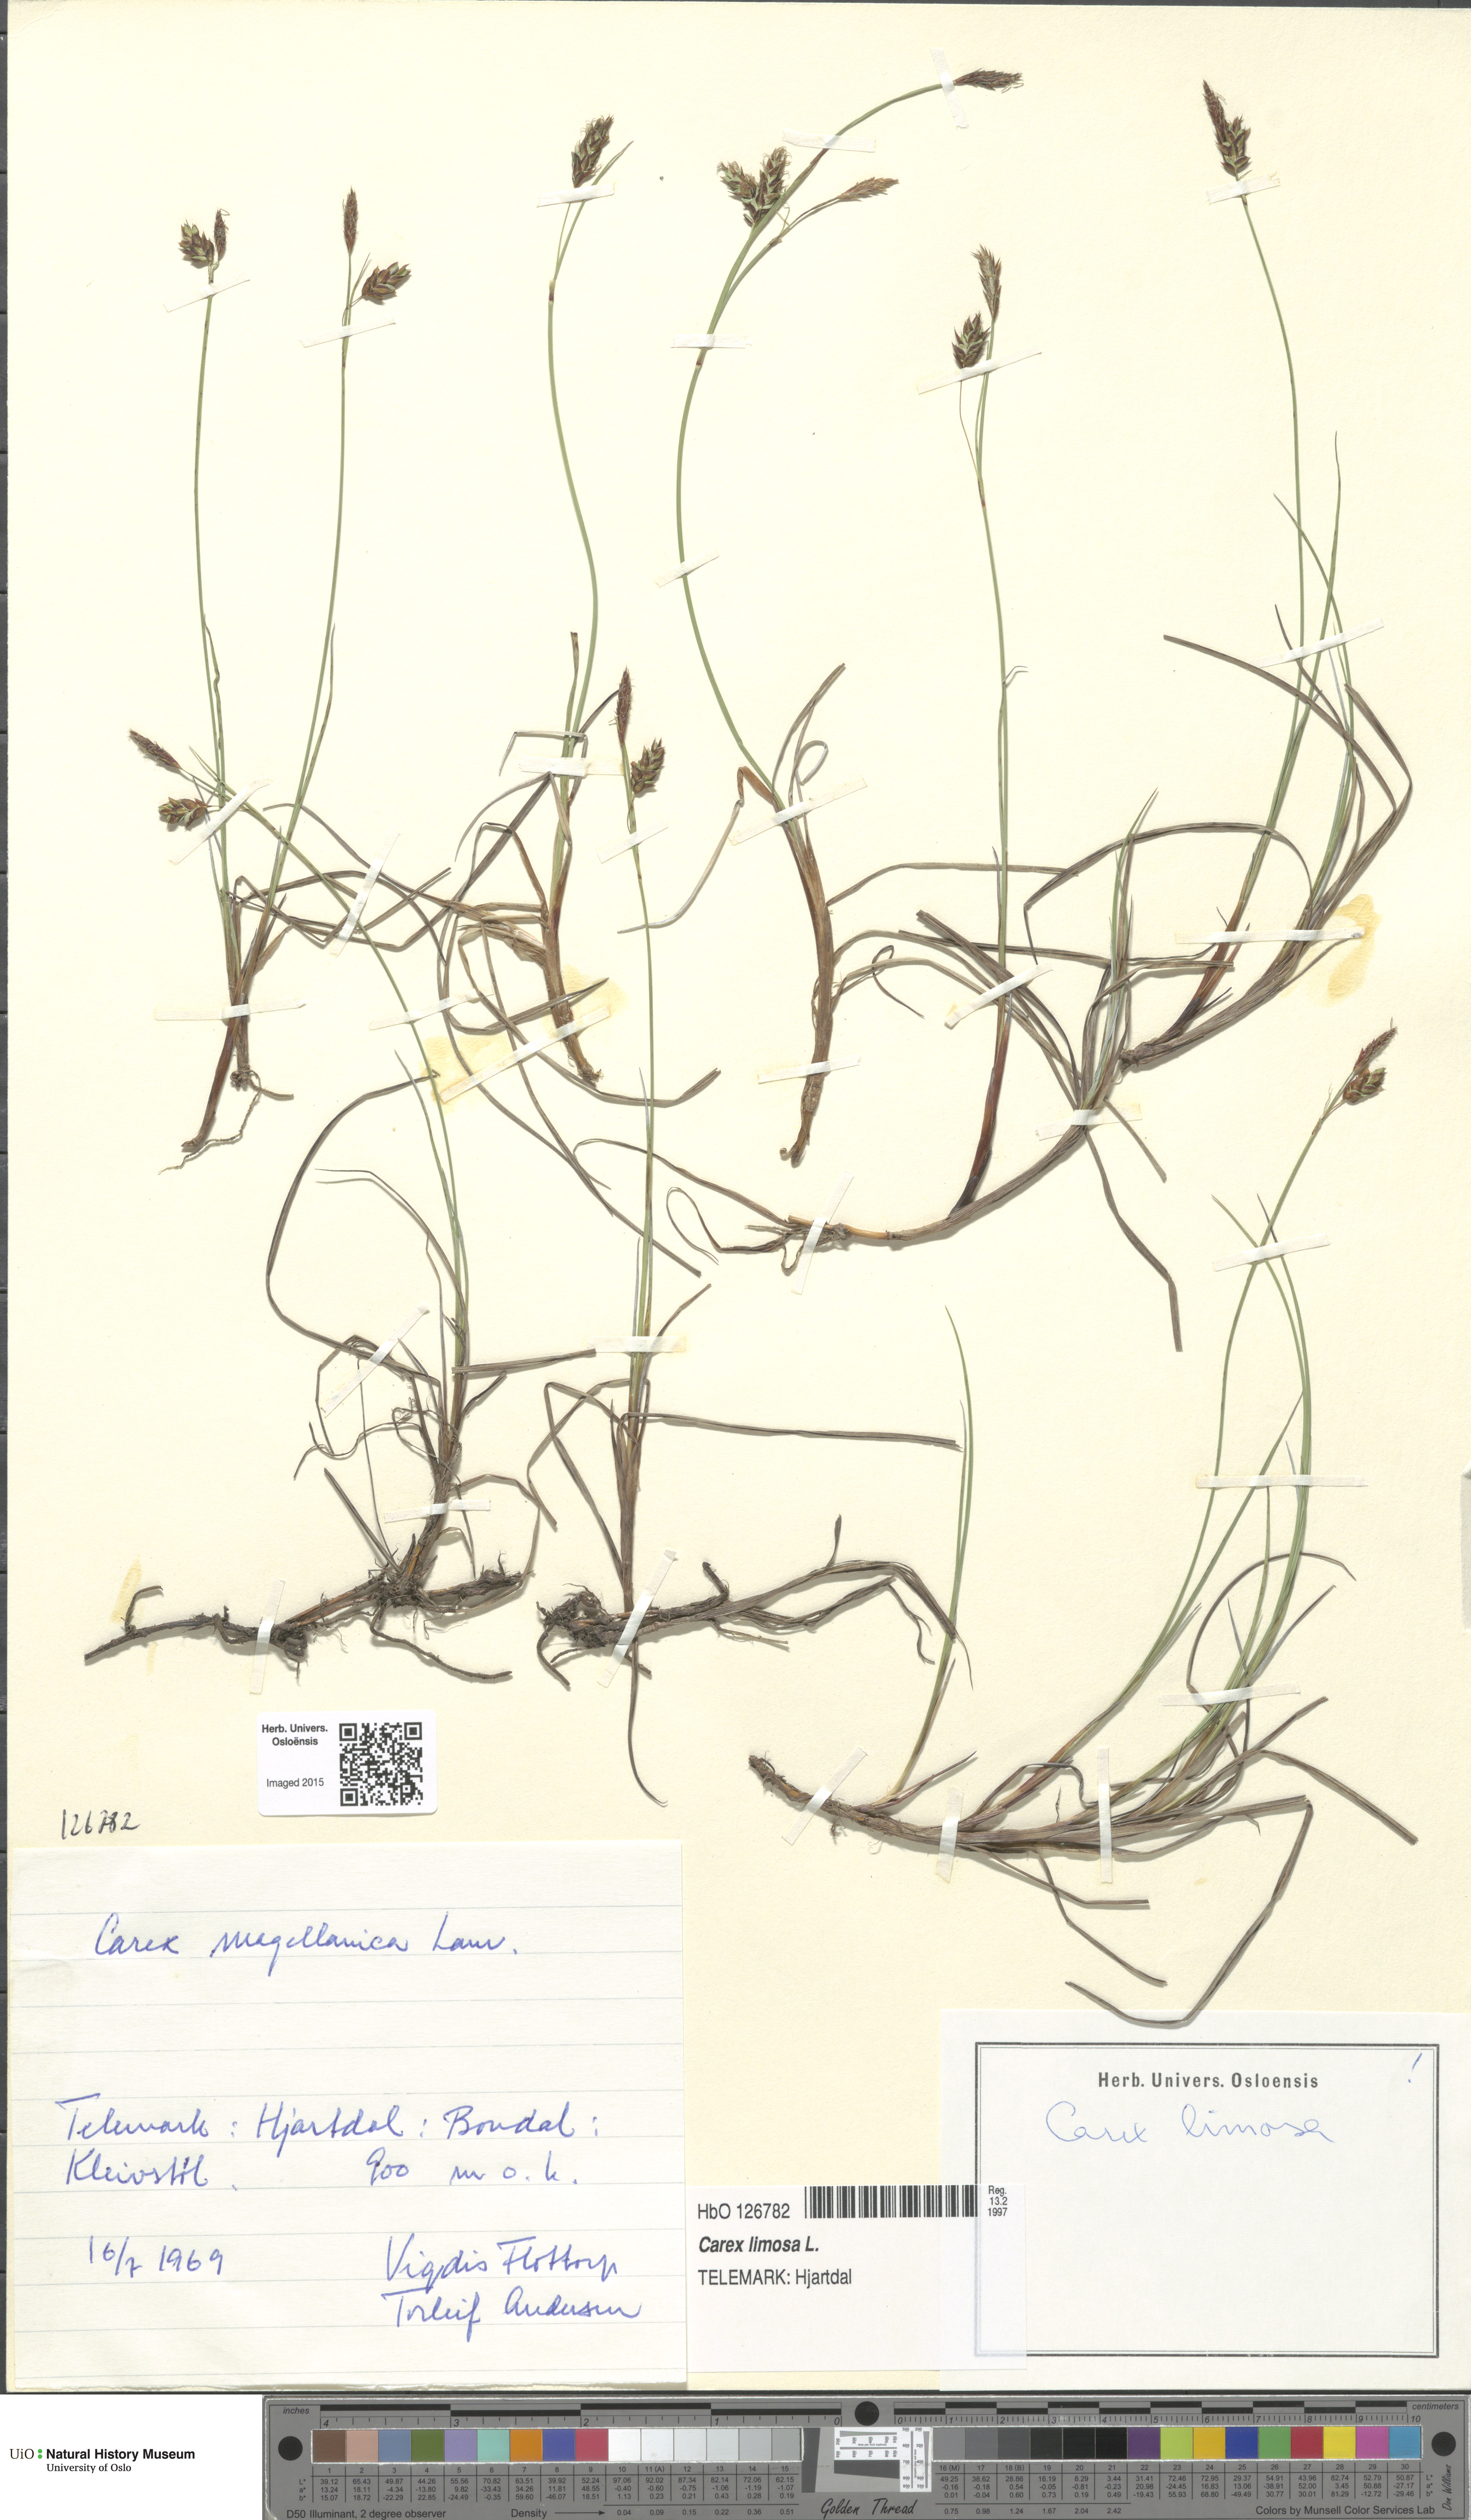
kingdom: Plantae
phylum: Tracheophyta
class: Liliopsida
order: Poales
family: Cyperaceae
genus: Carex
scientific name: Carex limosa
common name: Bog sedge
